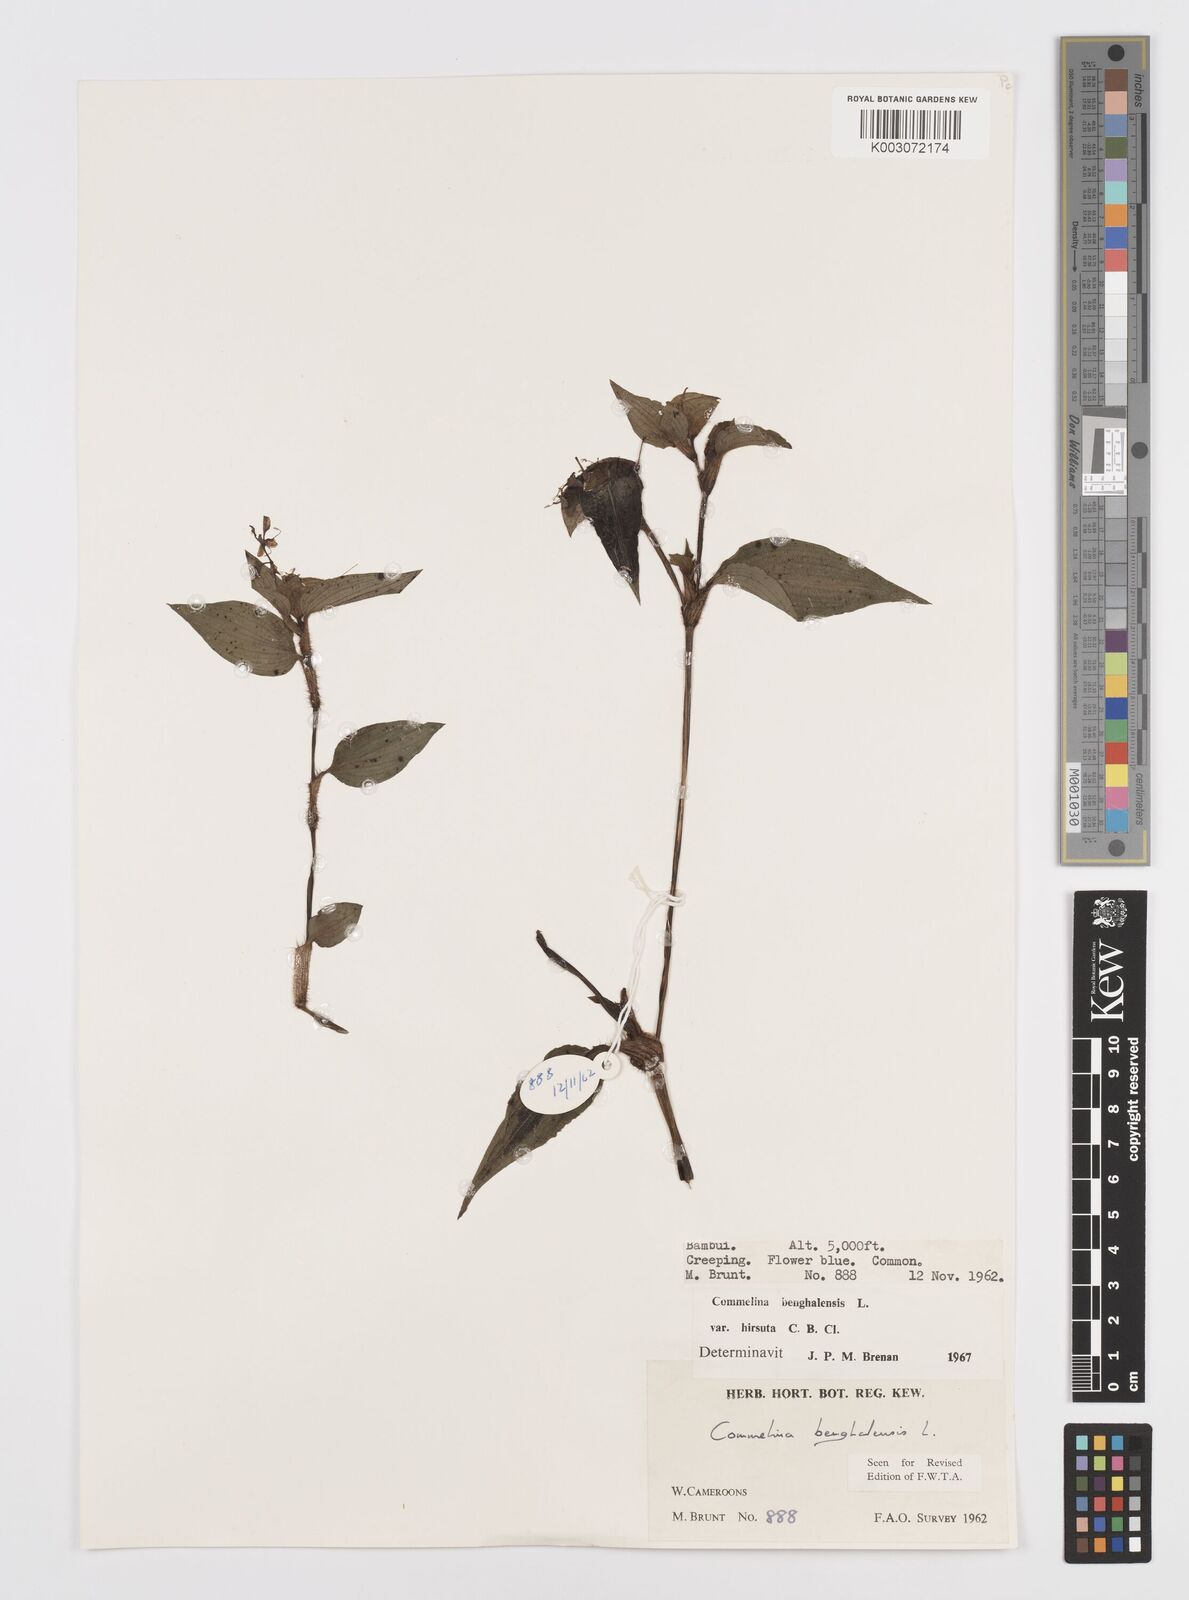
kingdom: Plantae
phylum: Tracheophyta
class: Liliopsida
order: Commelinales
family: Commelinaceae
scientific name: Commelinaceae
